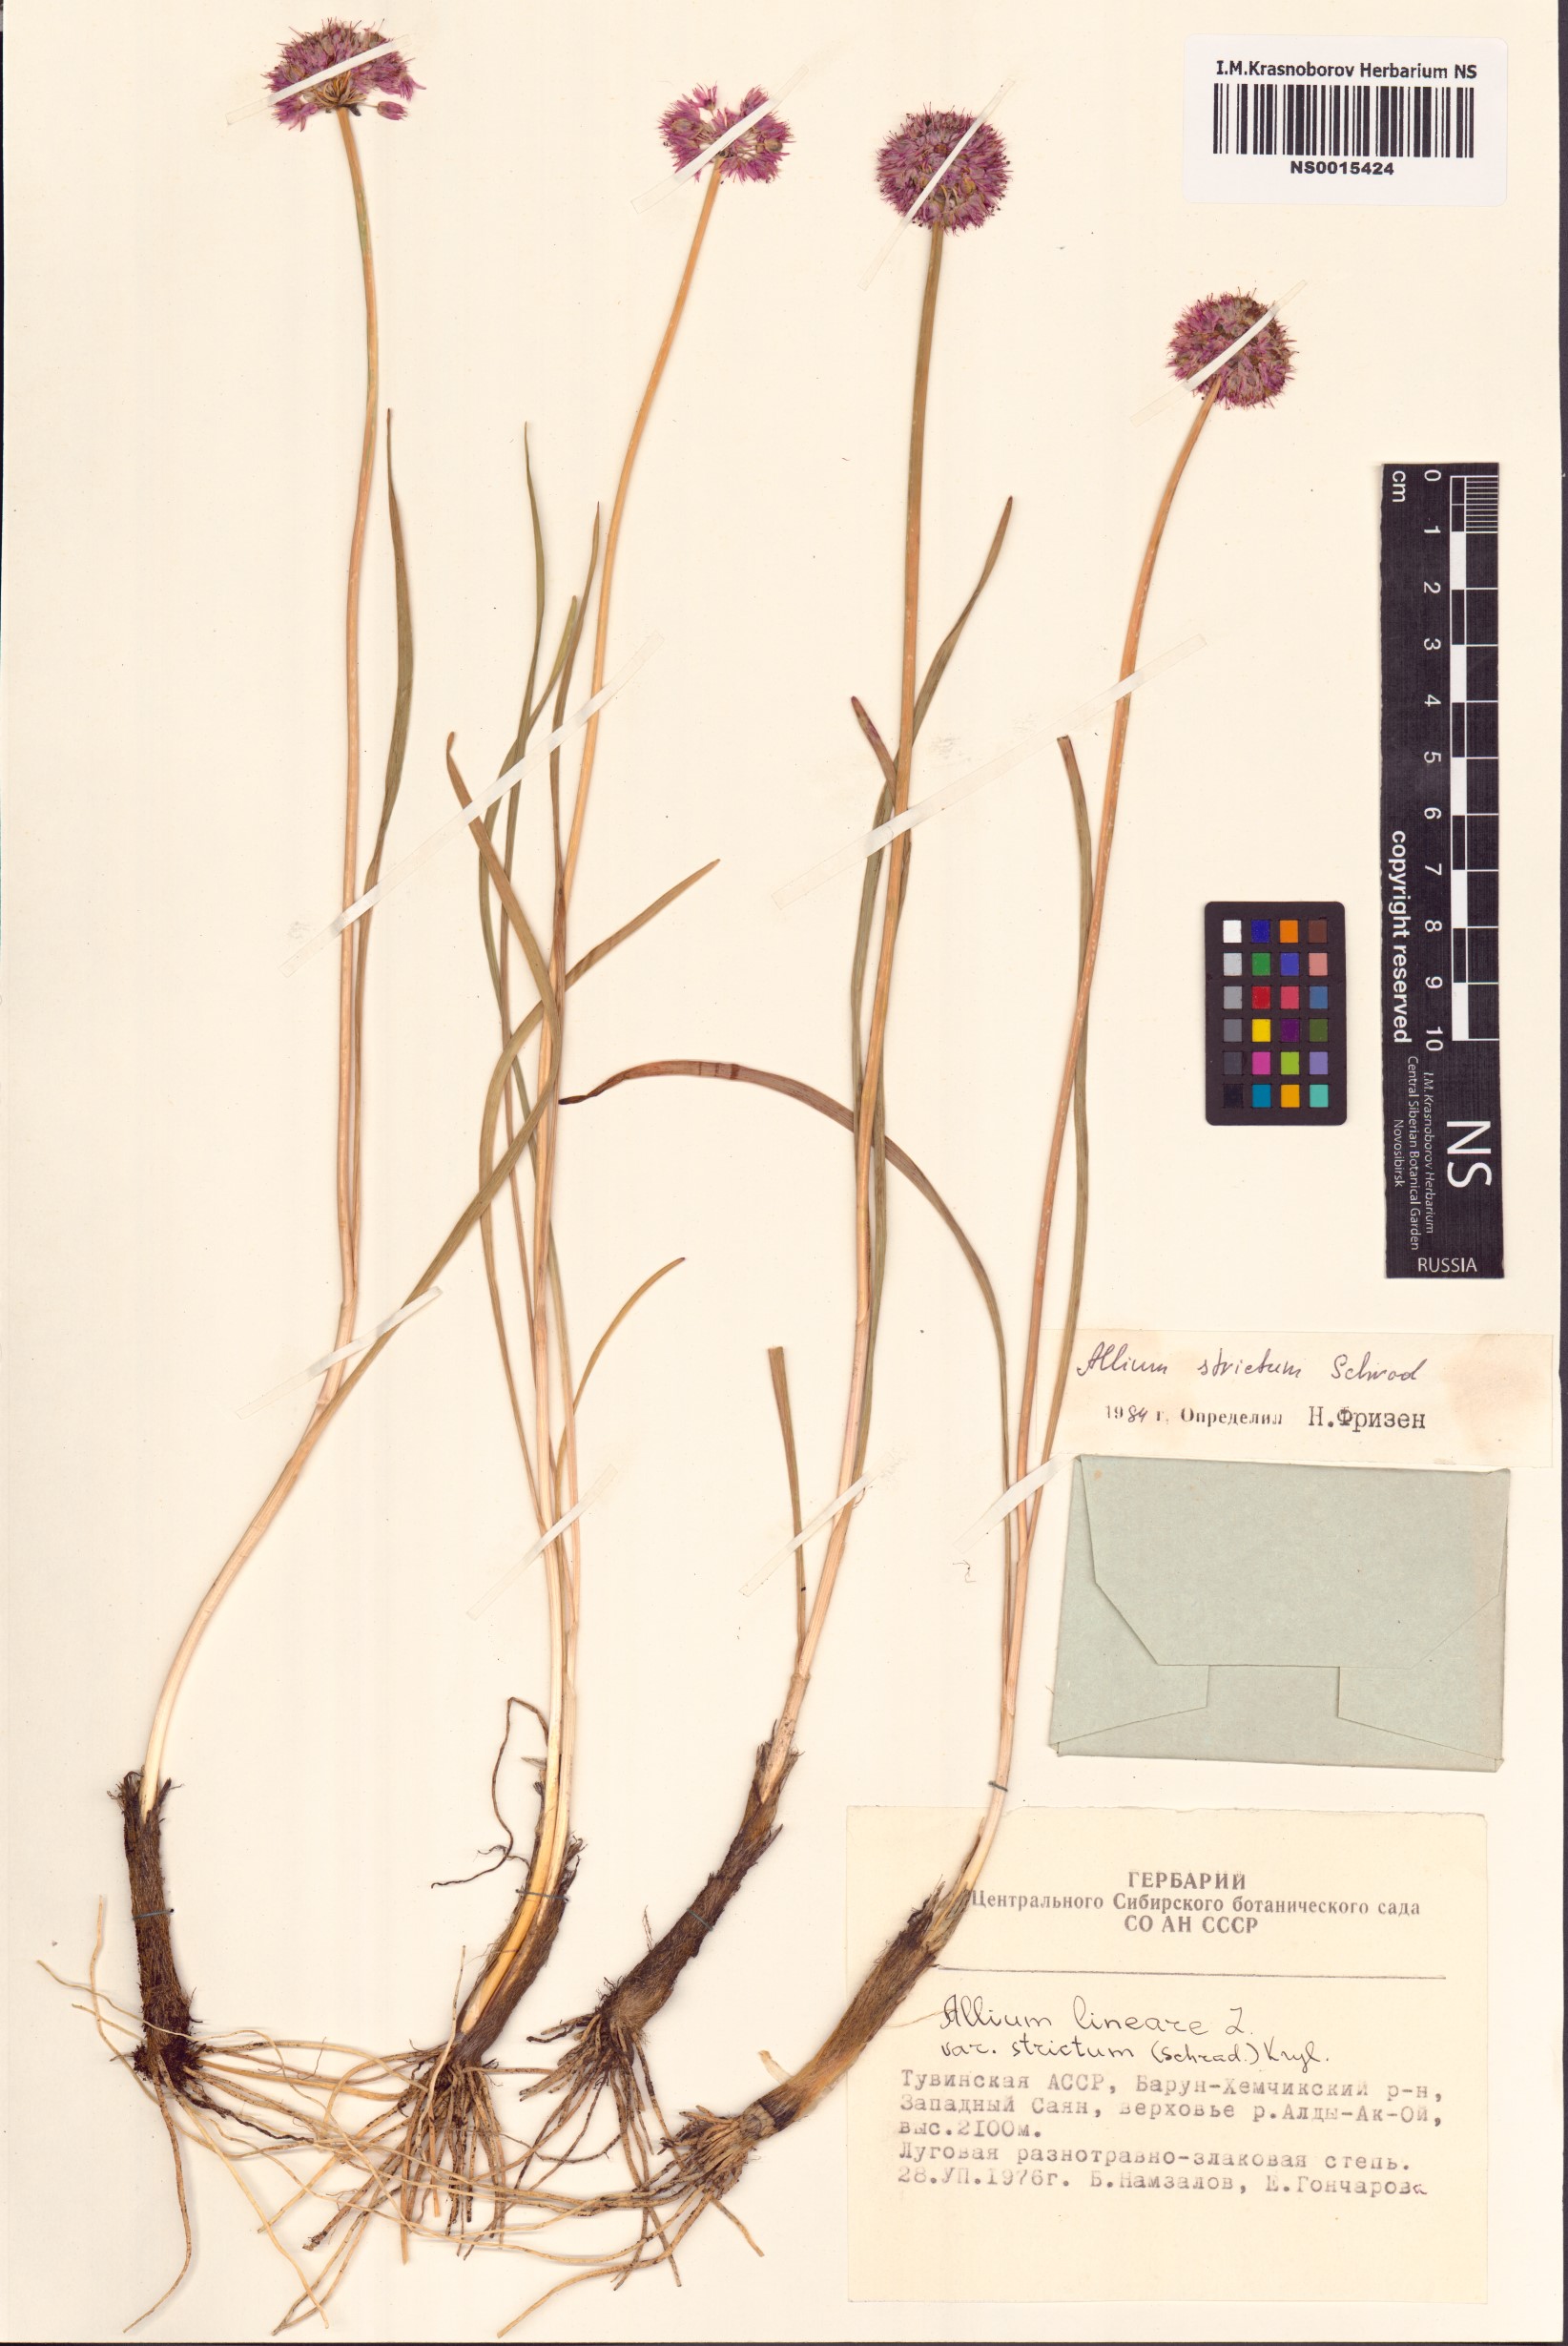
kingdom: Plantae
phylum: Tracheophyta
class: Liliopsida
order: Asparagales
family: Amaryllidaceae
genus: Allium
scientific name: Allium strictum
